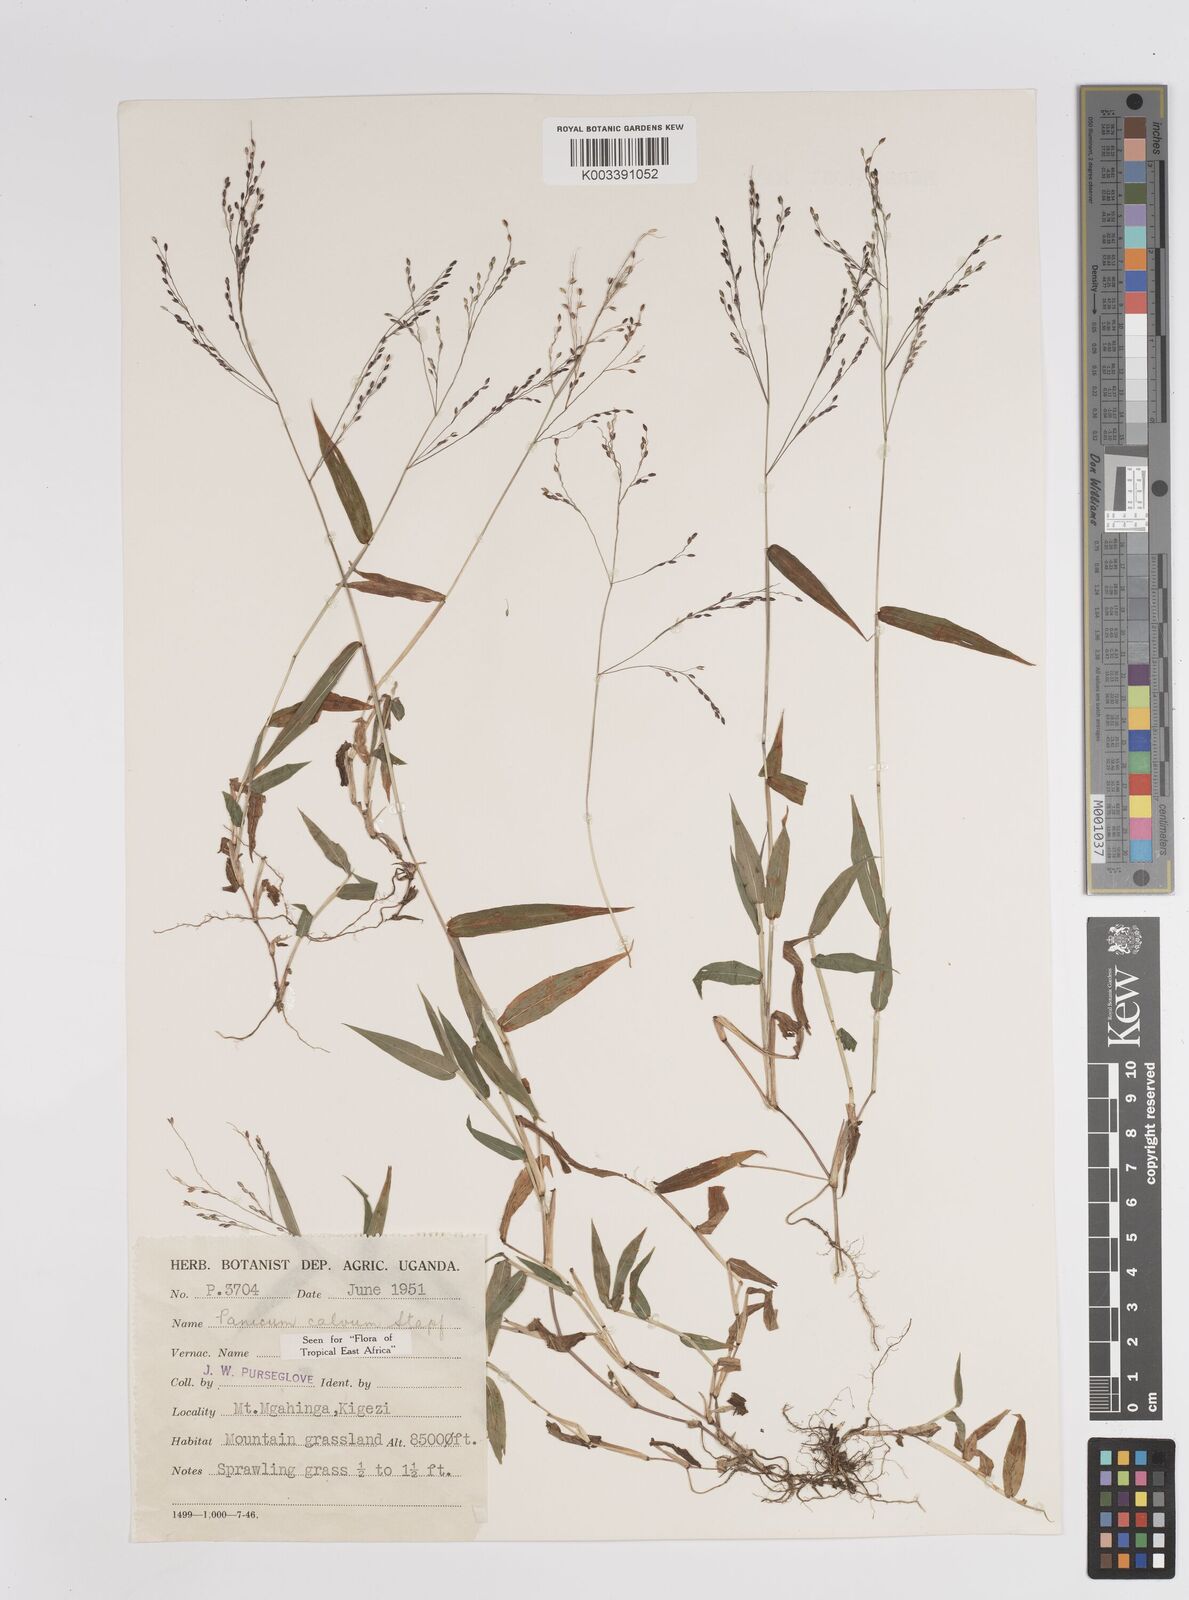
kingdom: Plantae
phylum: Tracheophyta
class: Liliopsida
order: Poales
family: Poaceae
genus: Panicum
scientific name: Panicum calvum
